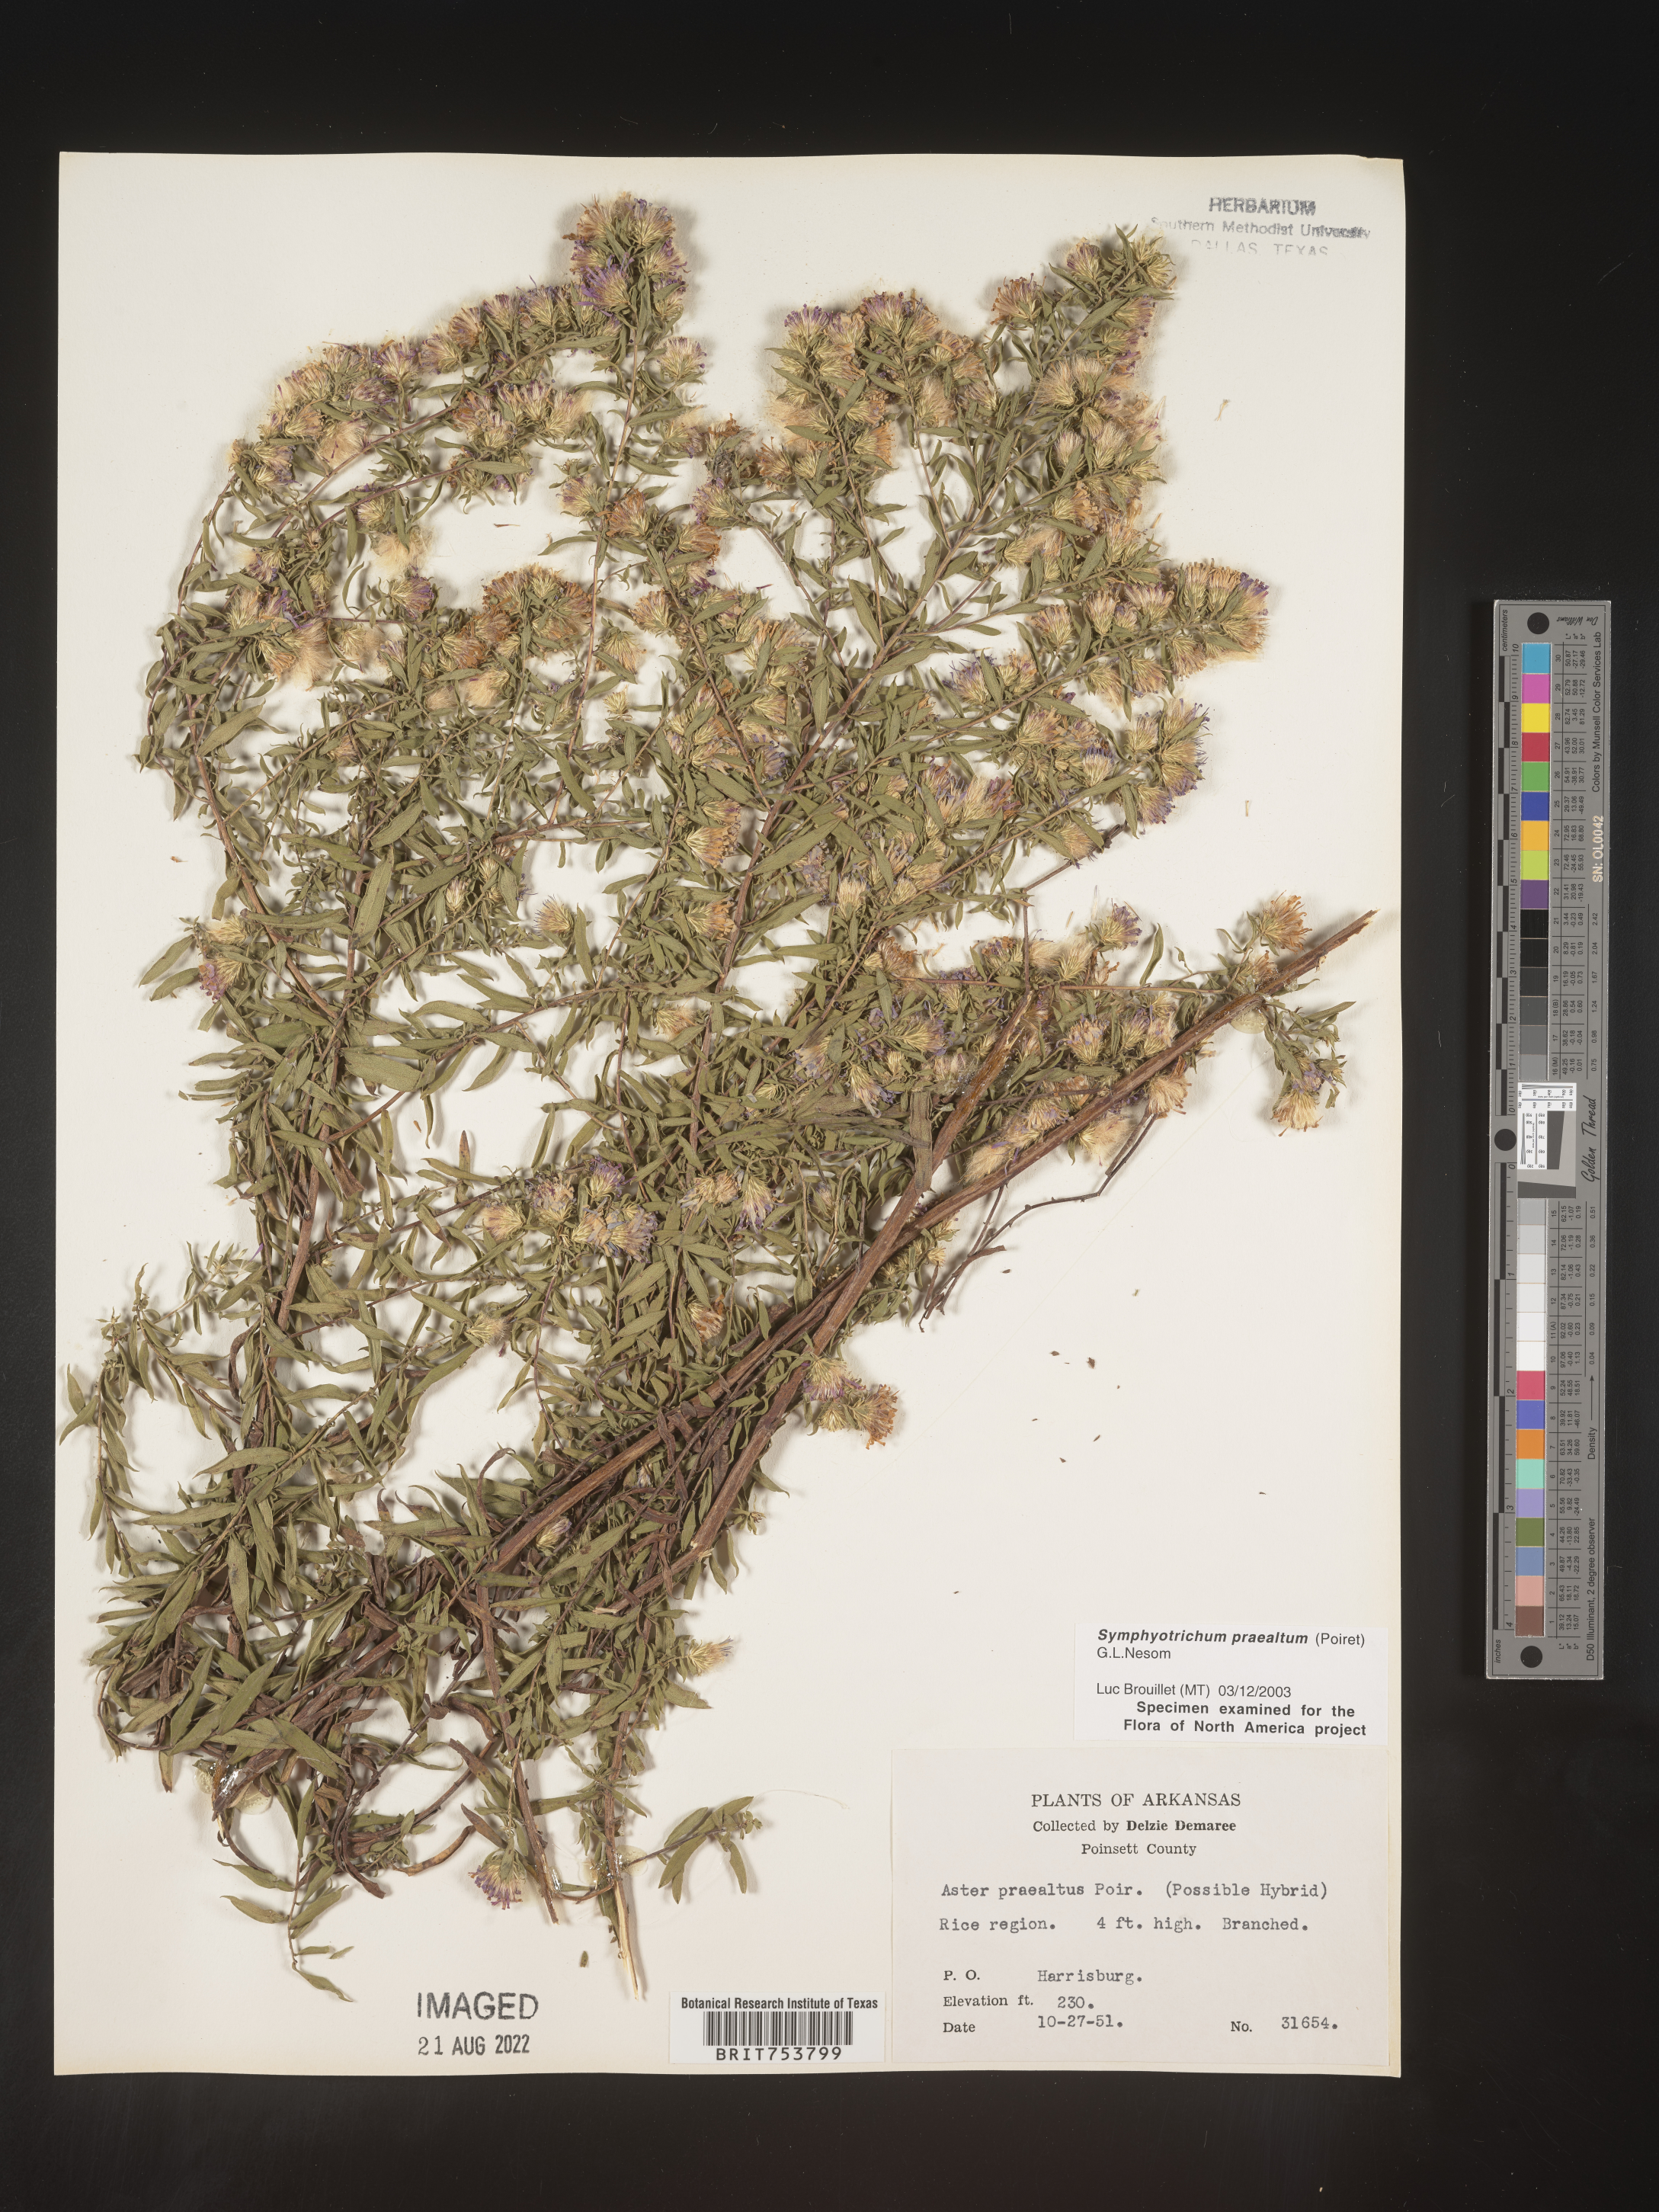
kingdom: Plantae
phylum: Tracheophyta
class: Magnoliopsida
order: Asterales
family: Asteraceae
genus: Symphyotrichum
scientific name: Symphyotrichum praealtum
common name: Willow aster
